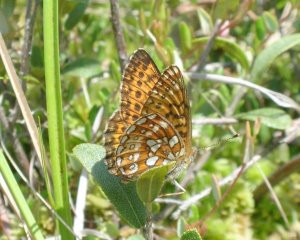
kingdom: Animalia
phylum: Arthropoda
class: Insecta
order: Lepidoptera
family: Nymphalidae
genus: Boloria
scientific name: Boloria eunomia
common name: Bog Fritillary
